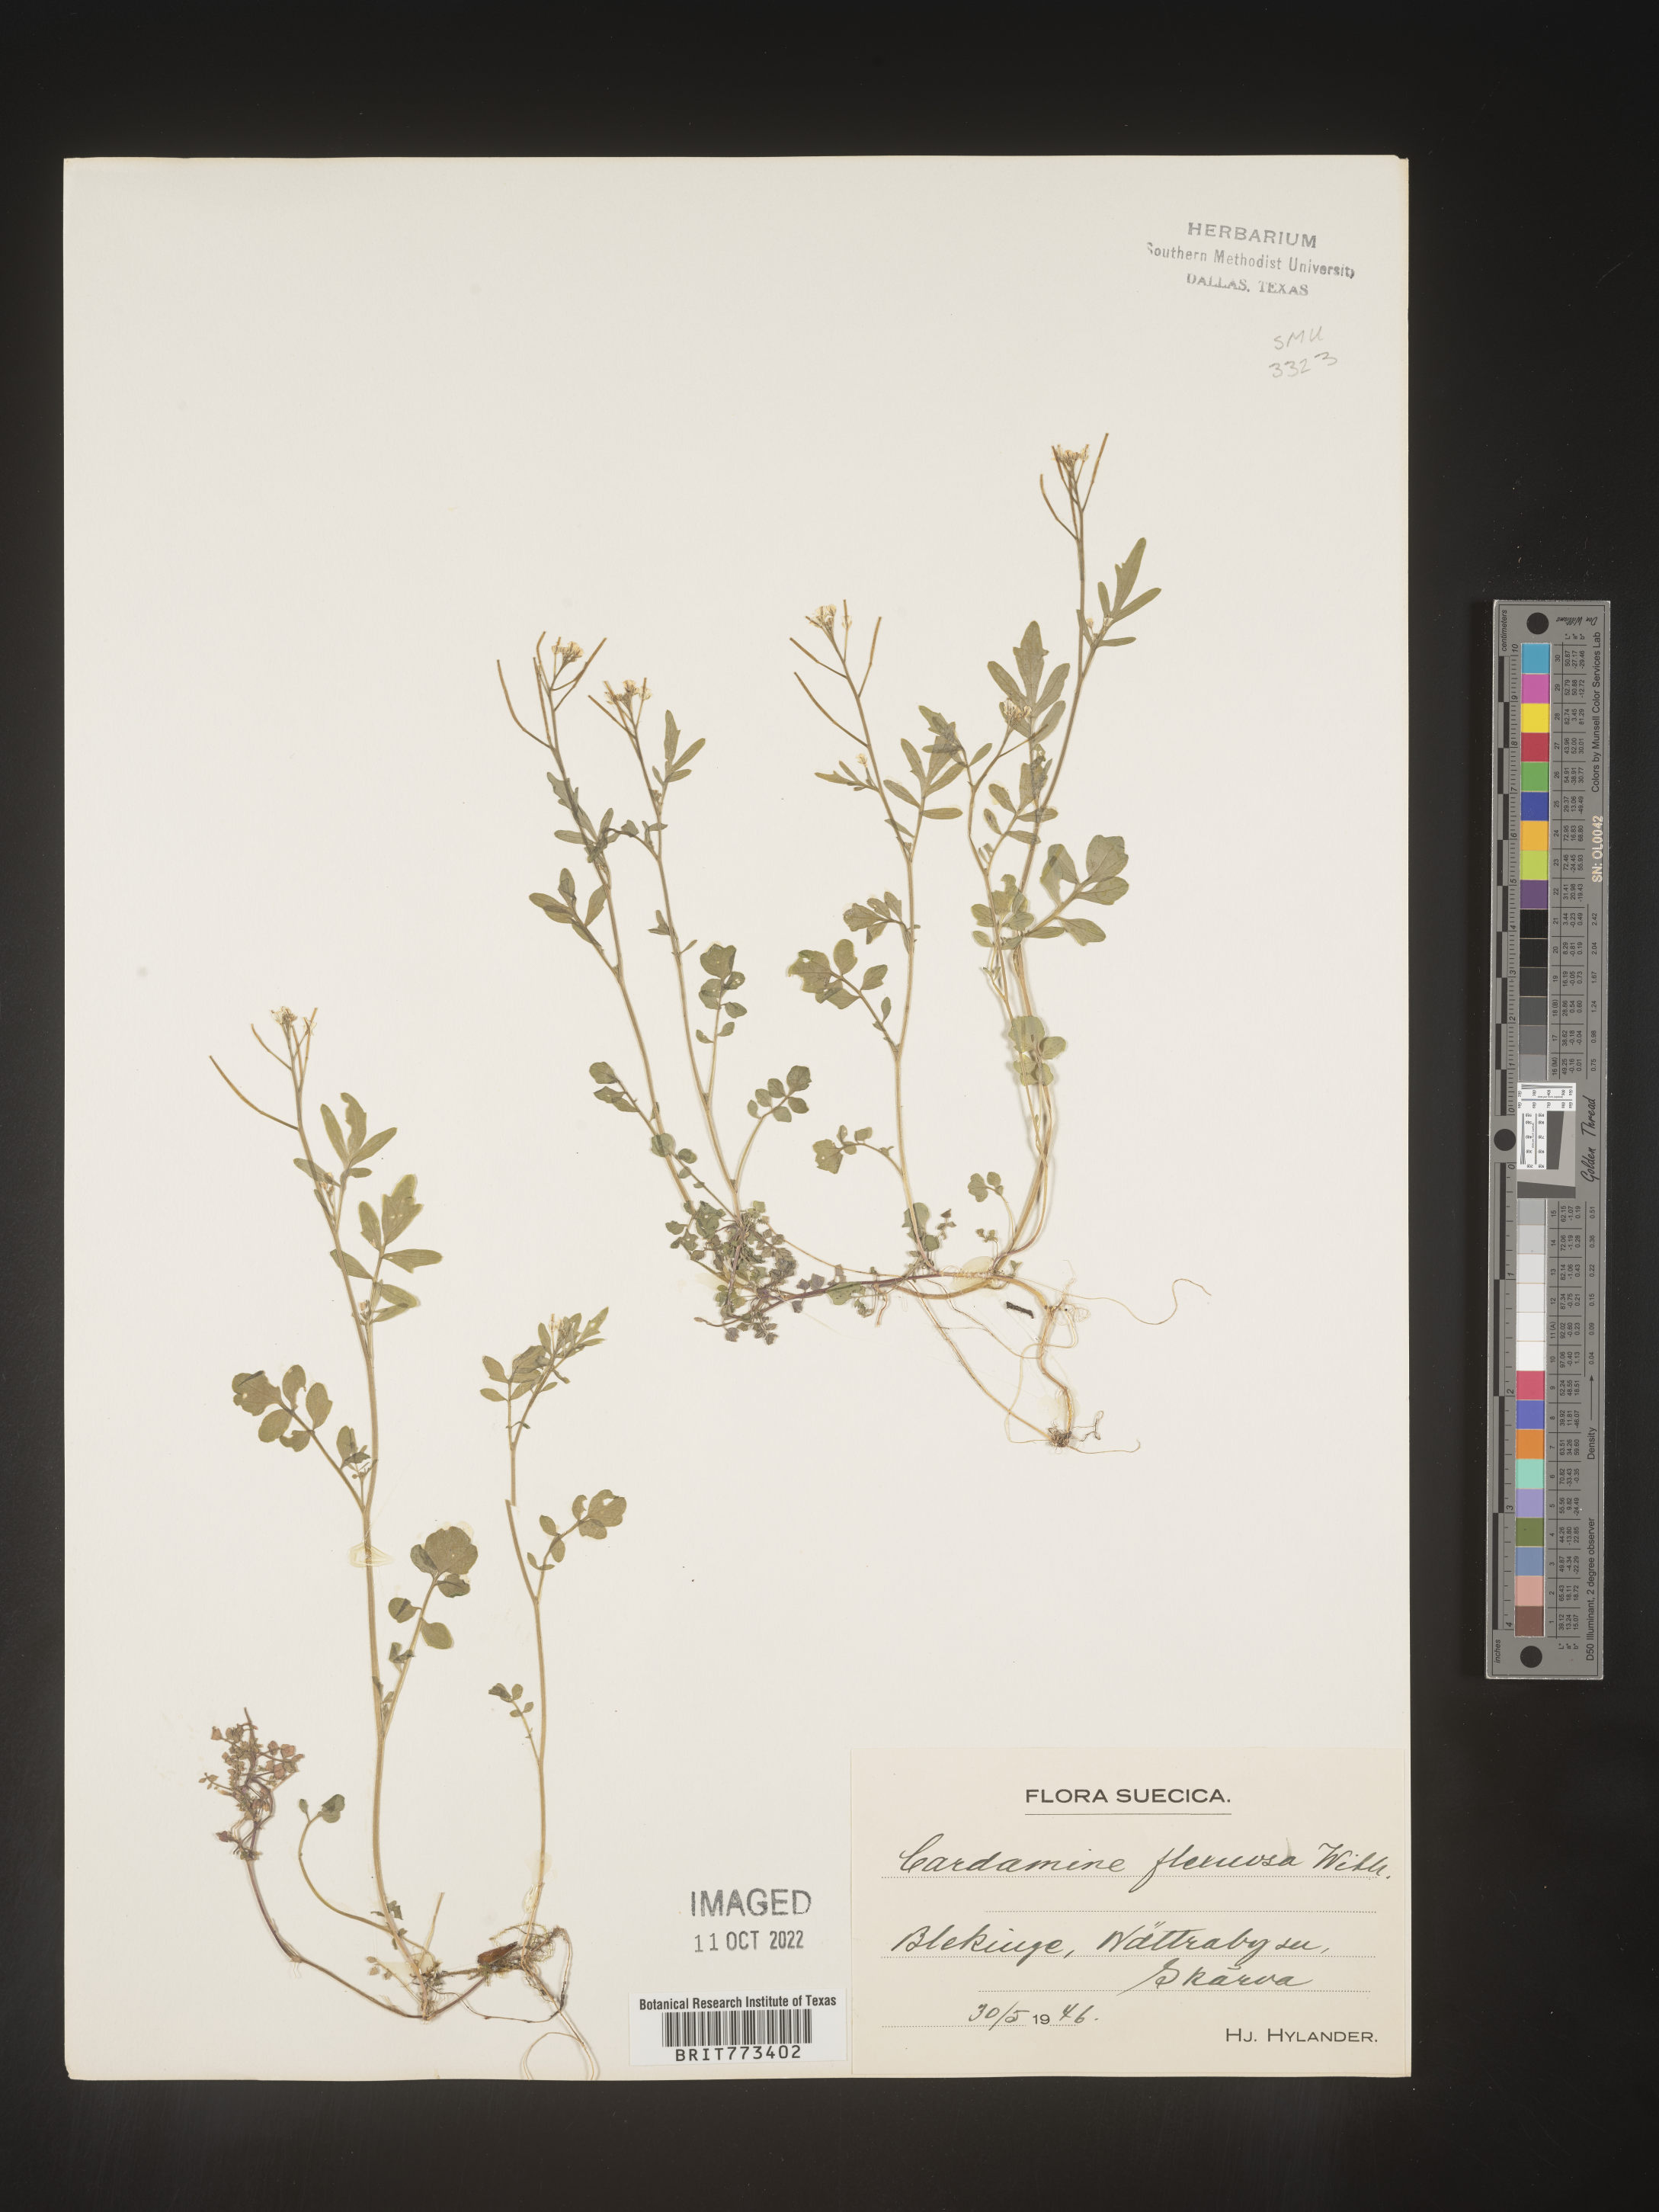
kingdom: Plantae
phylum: Tracheophyta
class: Magnoliopsida
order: Brassicales
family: Brassicaceae
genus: Cardamine
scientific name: Cardamine
